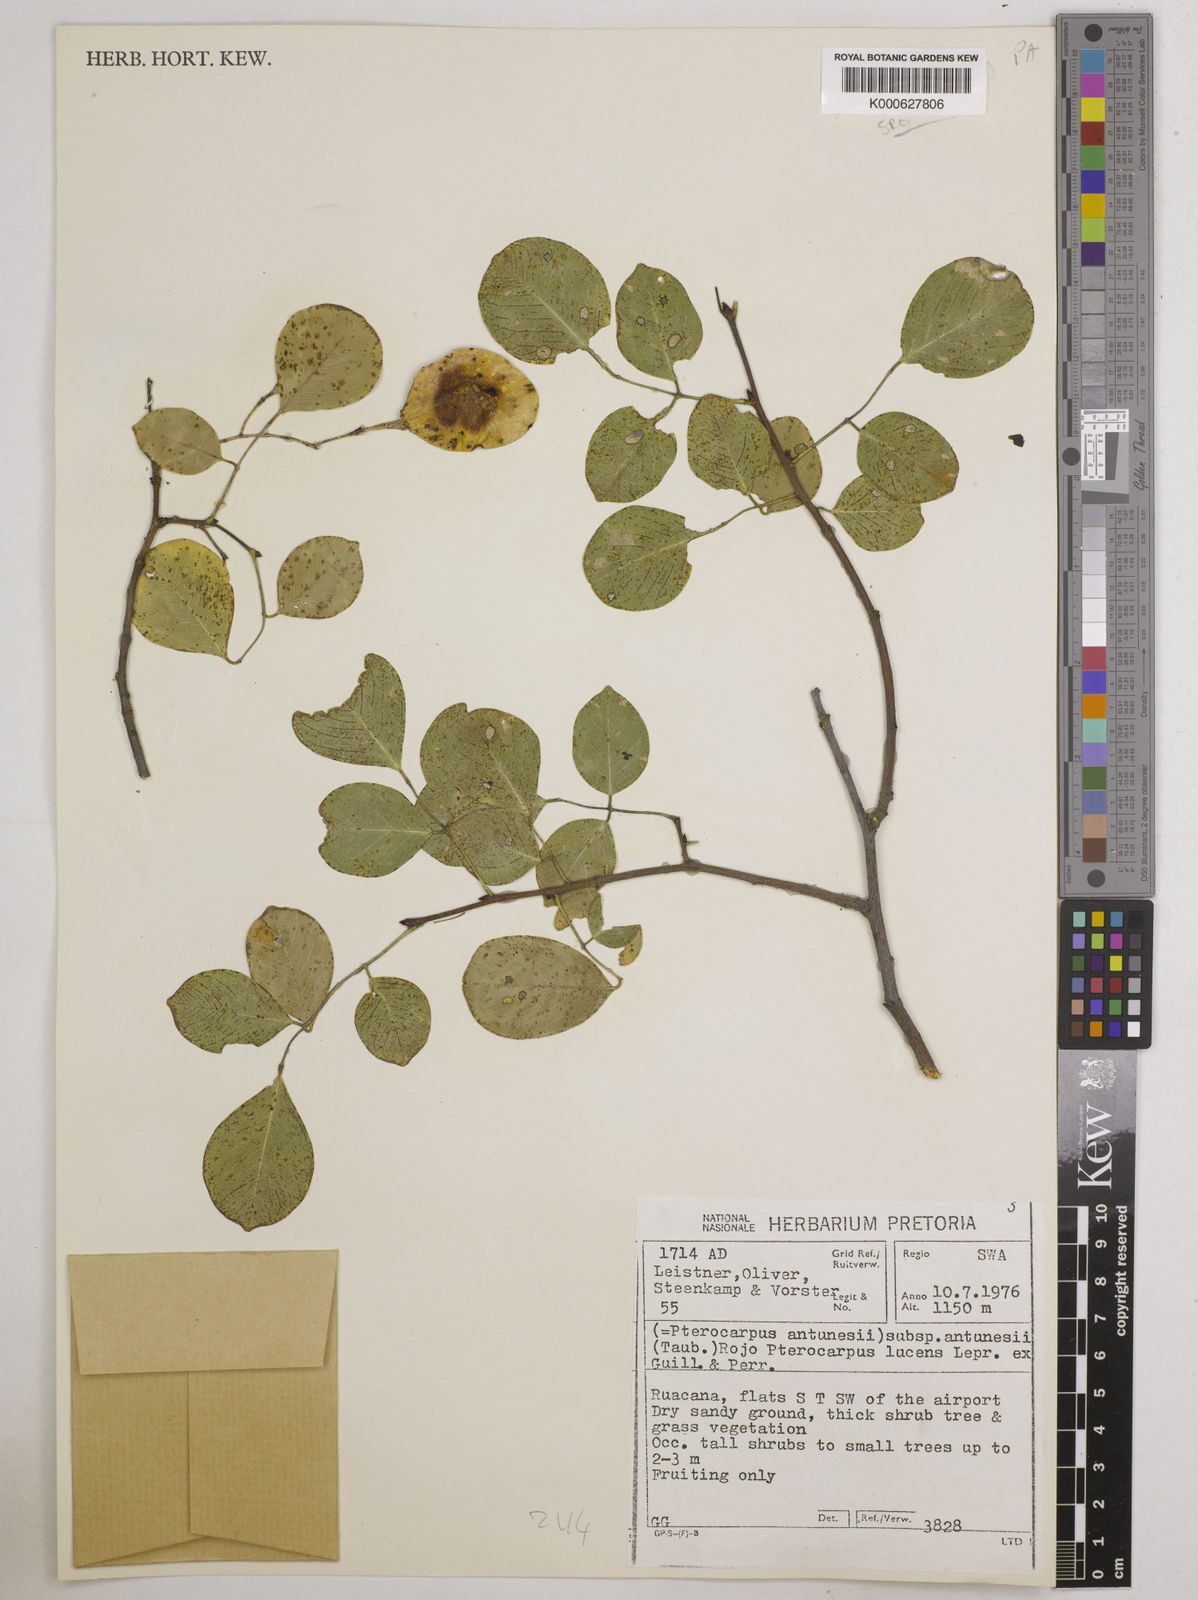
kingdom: Plantae
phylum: Tracheophyta
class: Magnoliopsida
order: Fabales
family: Fabaceae
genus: Pterocarpus
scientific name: Pterocarpus lucens
